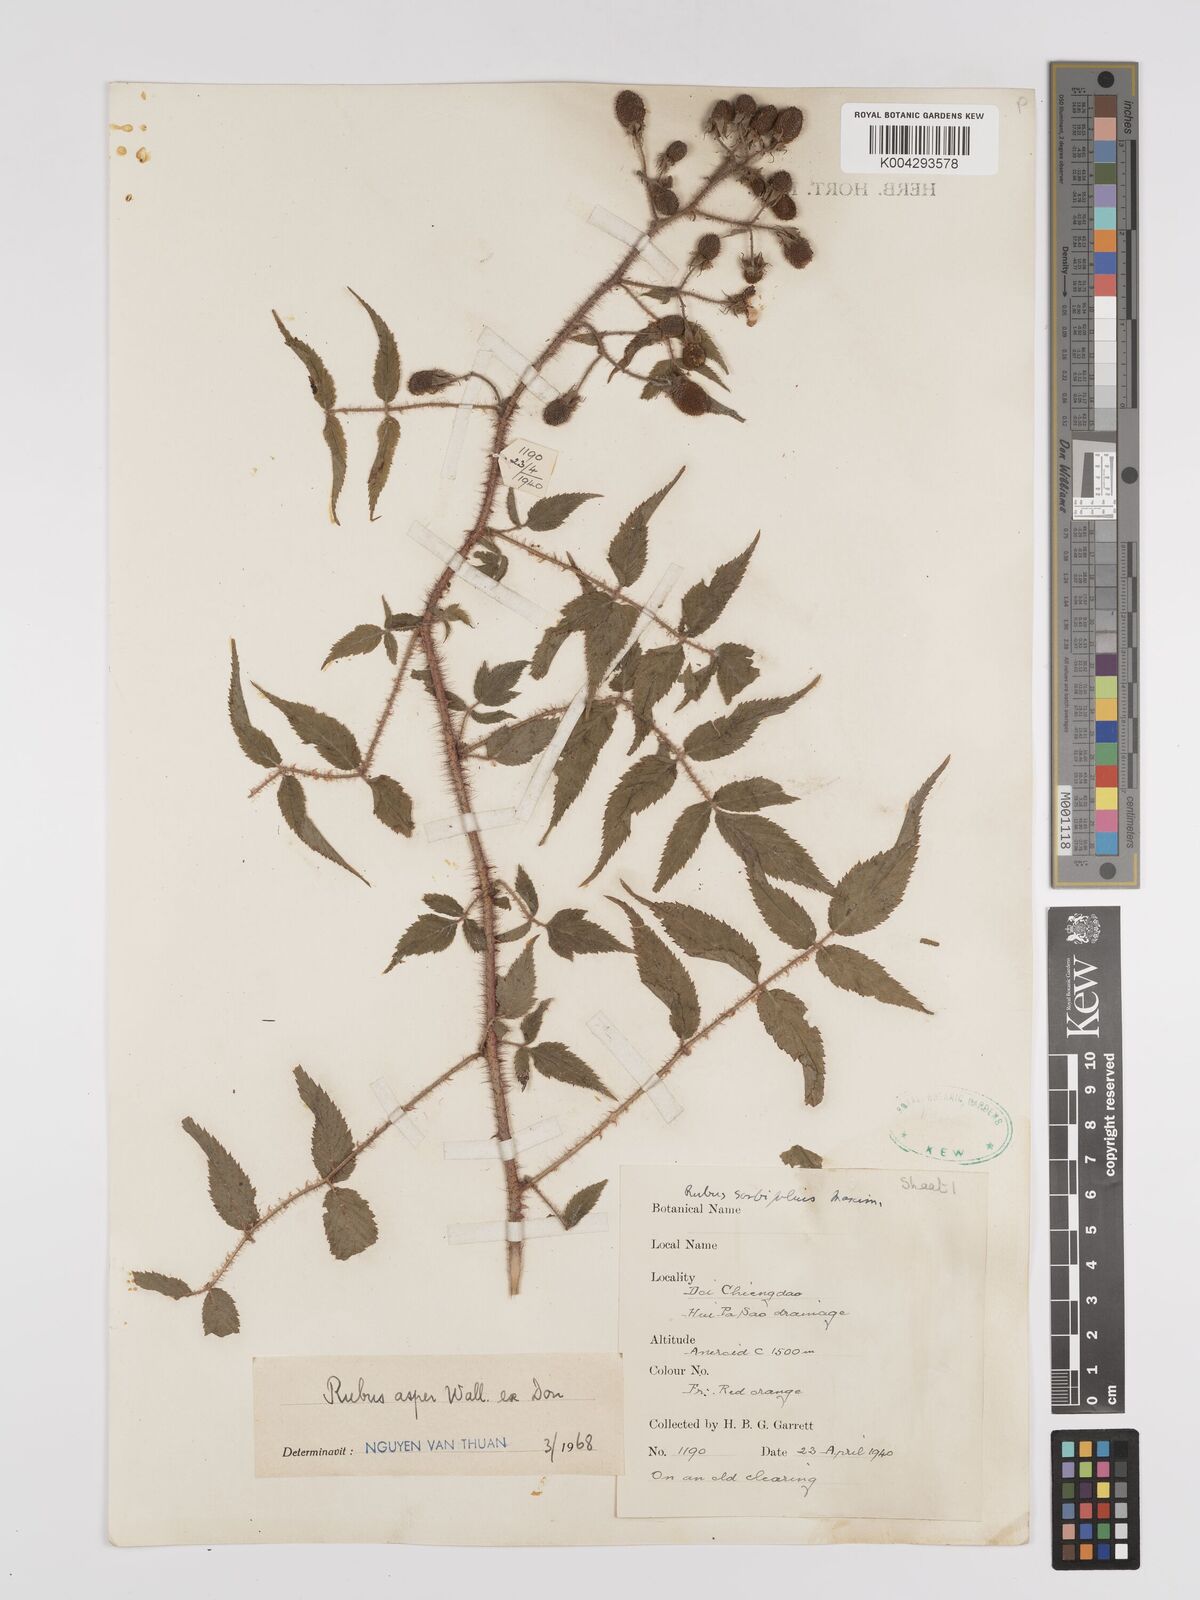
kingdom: Plantae
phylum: Tracheophyta
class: Magnoliopsida
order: Rosales
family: Rosaceae
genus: Rubus
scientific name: Rubus sumatranus
